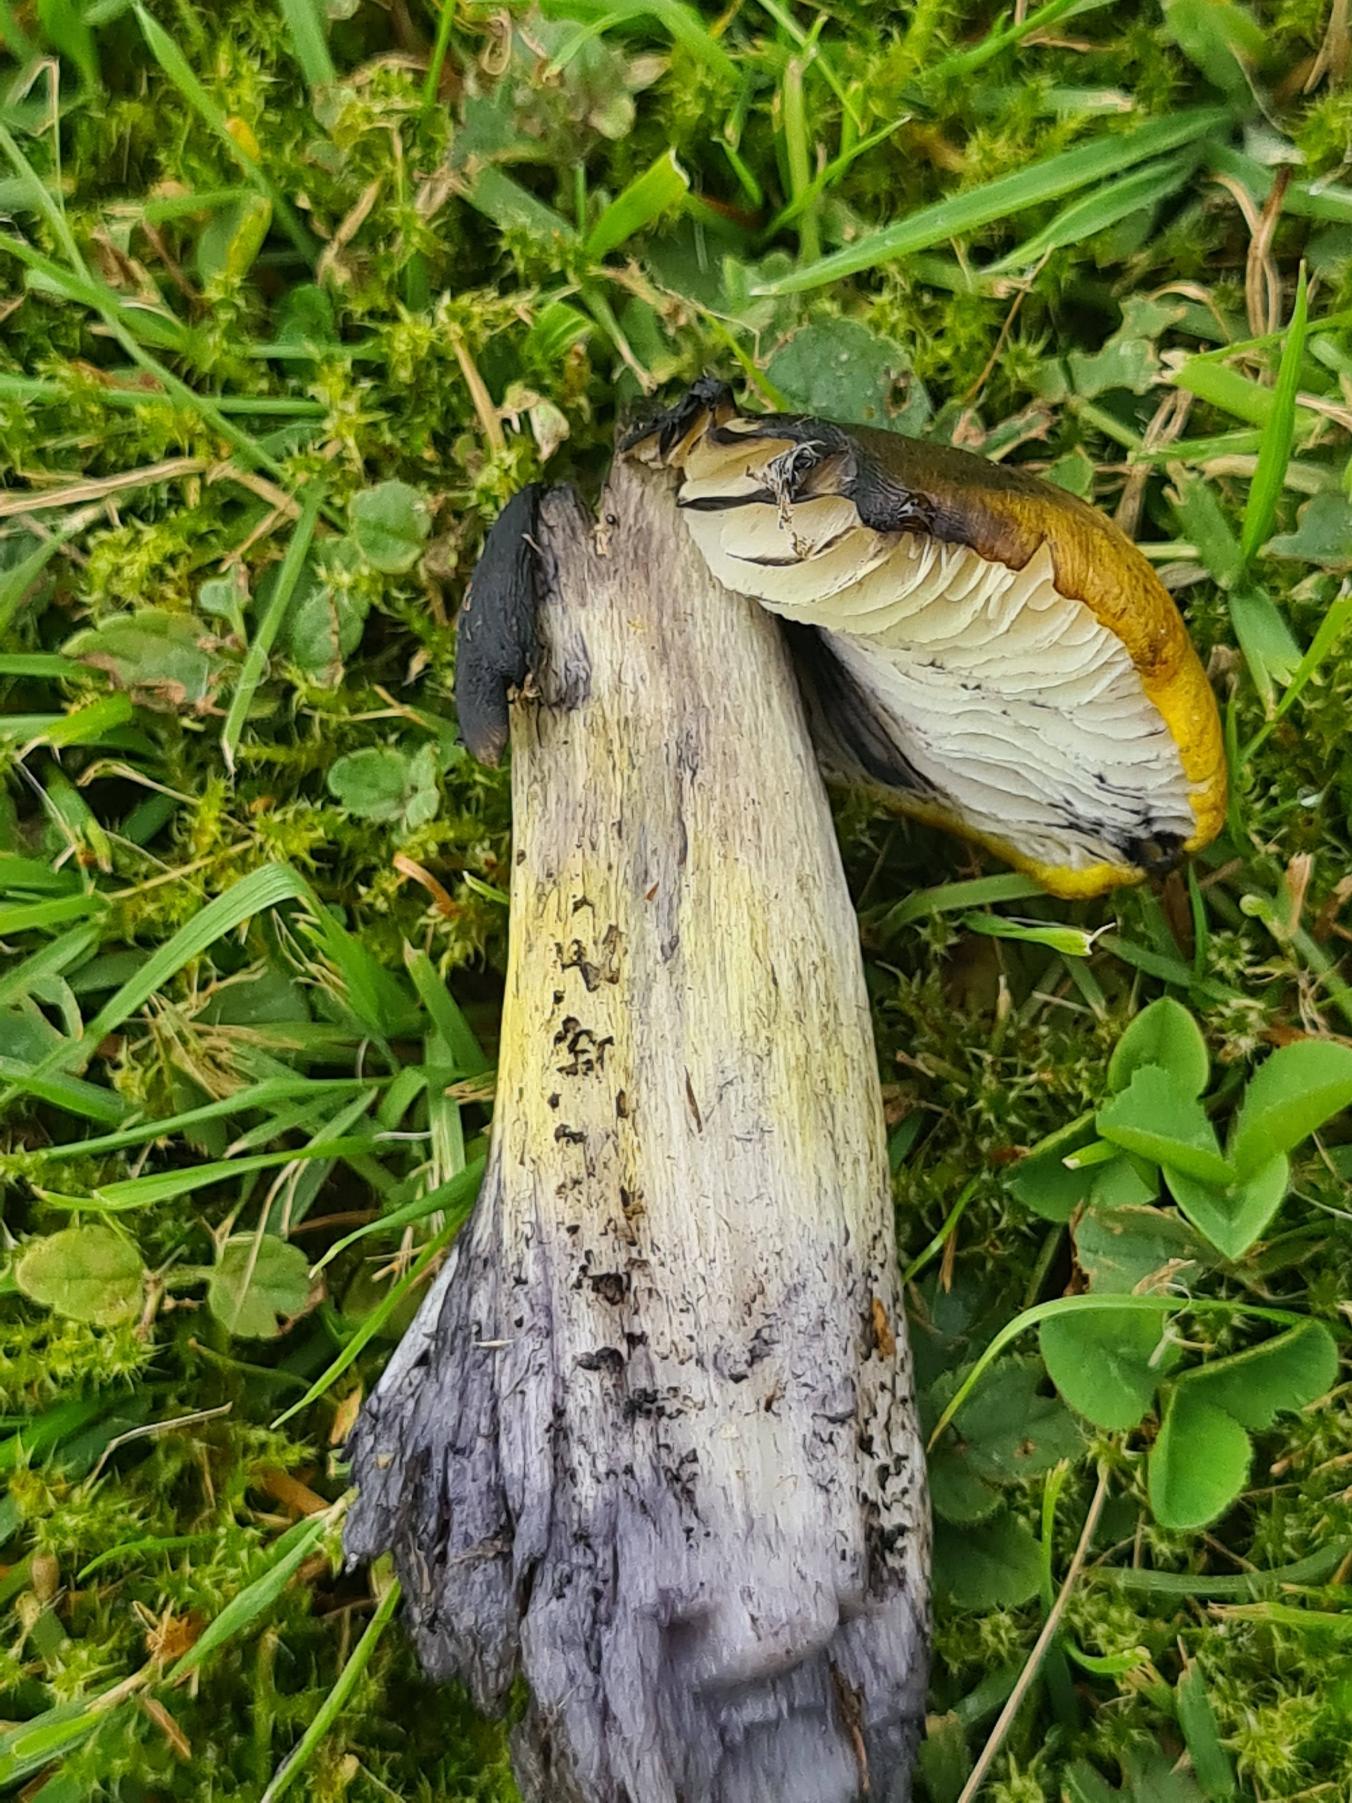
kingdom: Fungi
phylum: Basidiomycota
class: Agaricomycetes
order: Agaricales
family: Hygrophoraceae
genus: Hygrocybe
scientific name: Hygrocybe conica
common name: Kegle-vokshat
